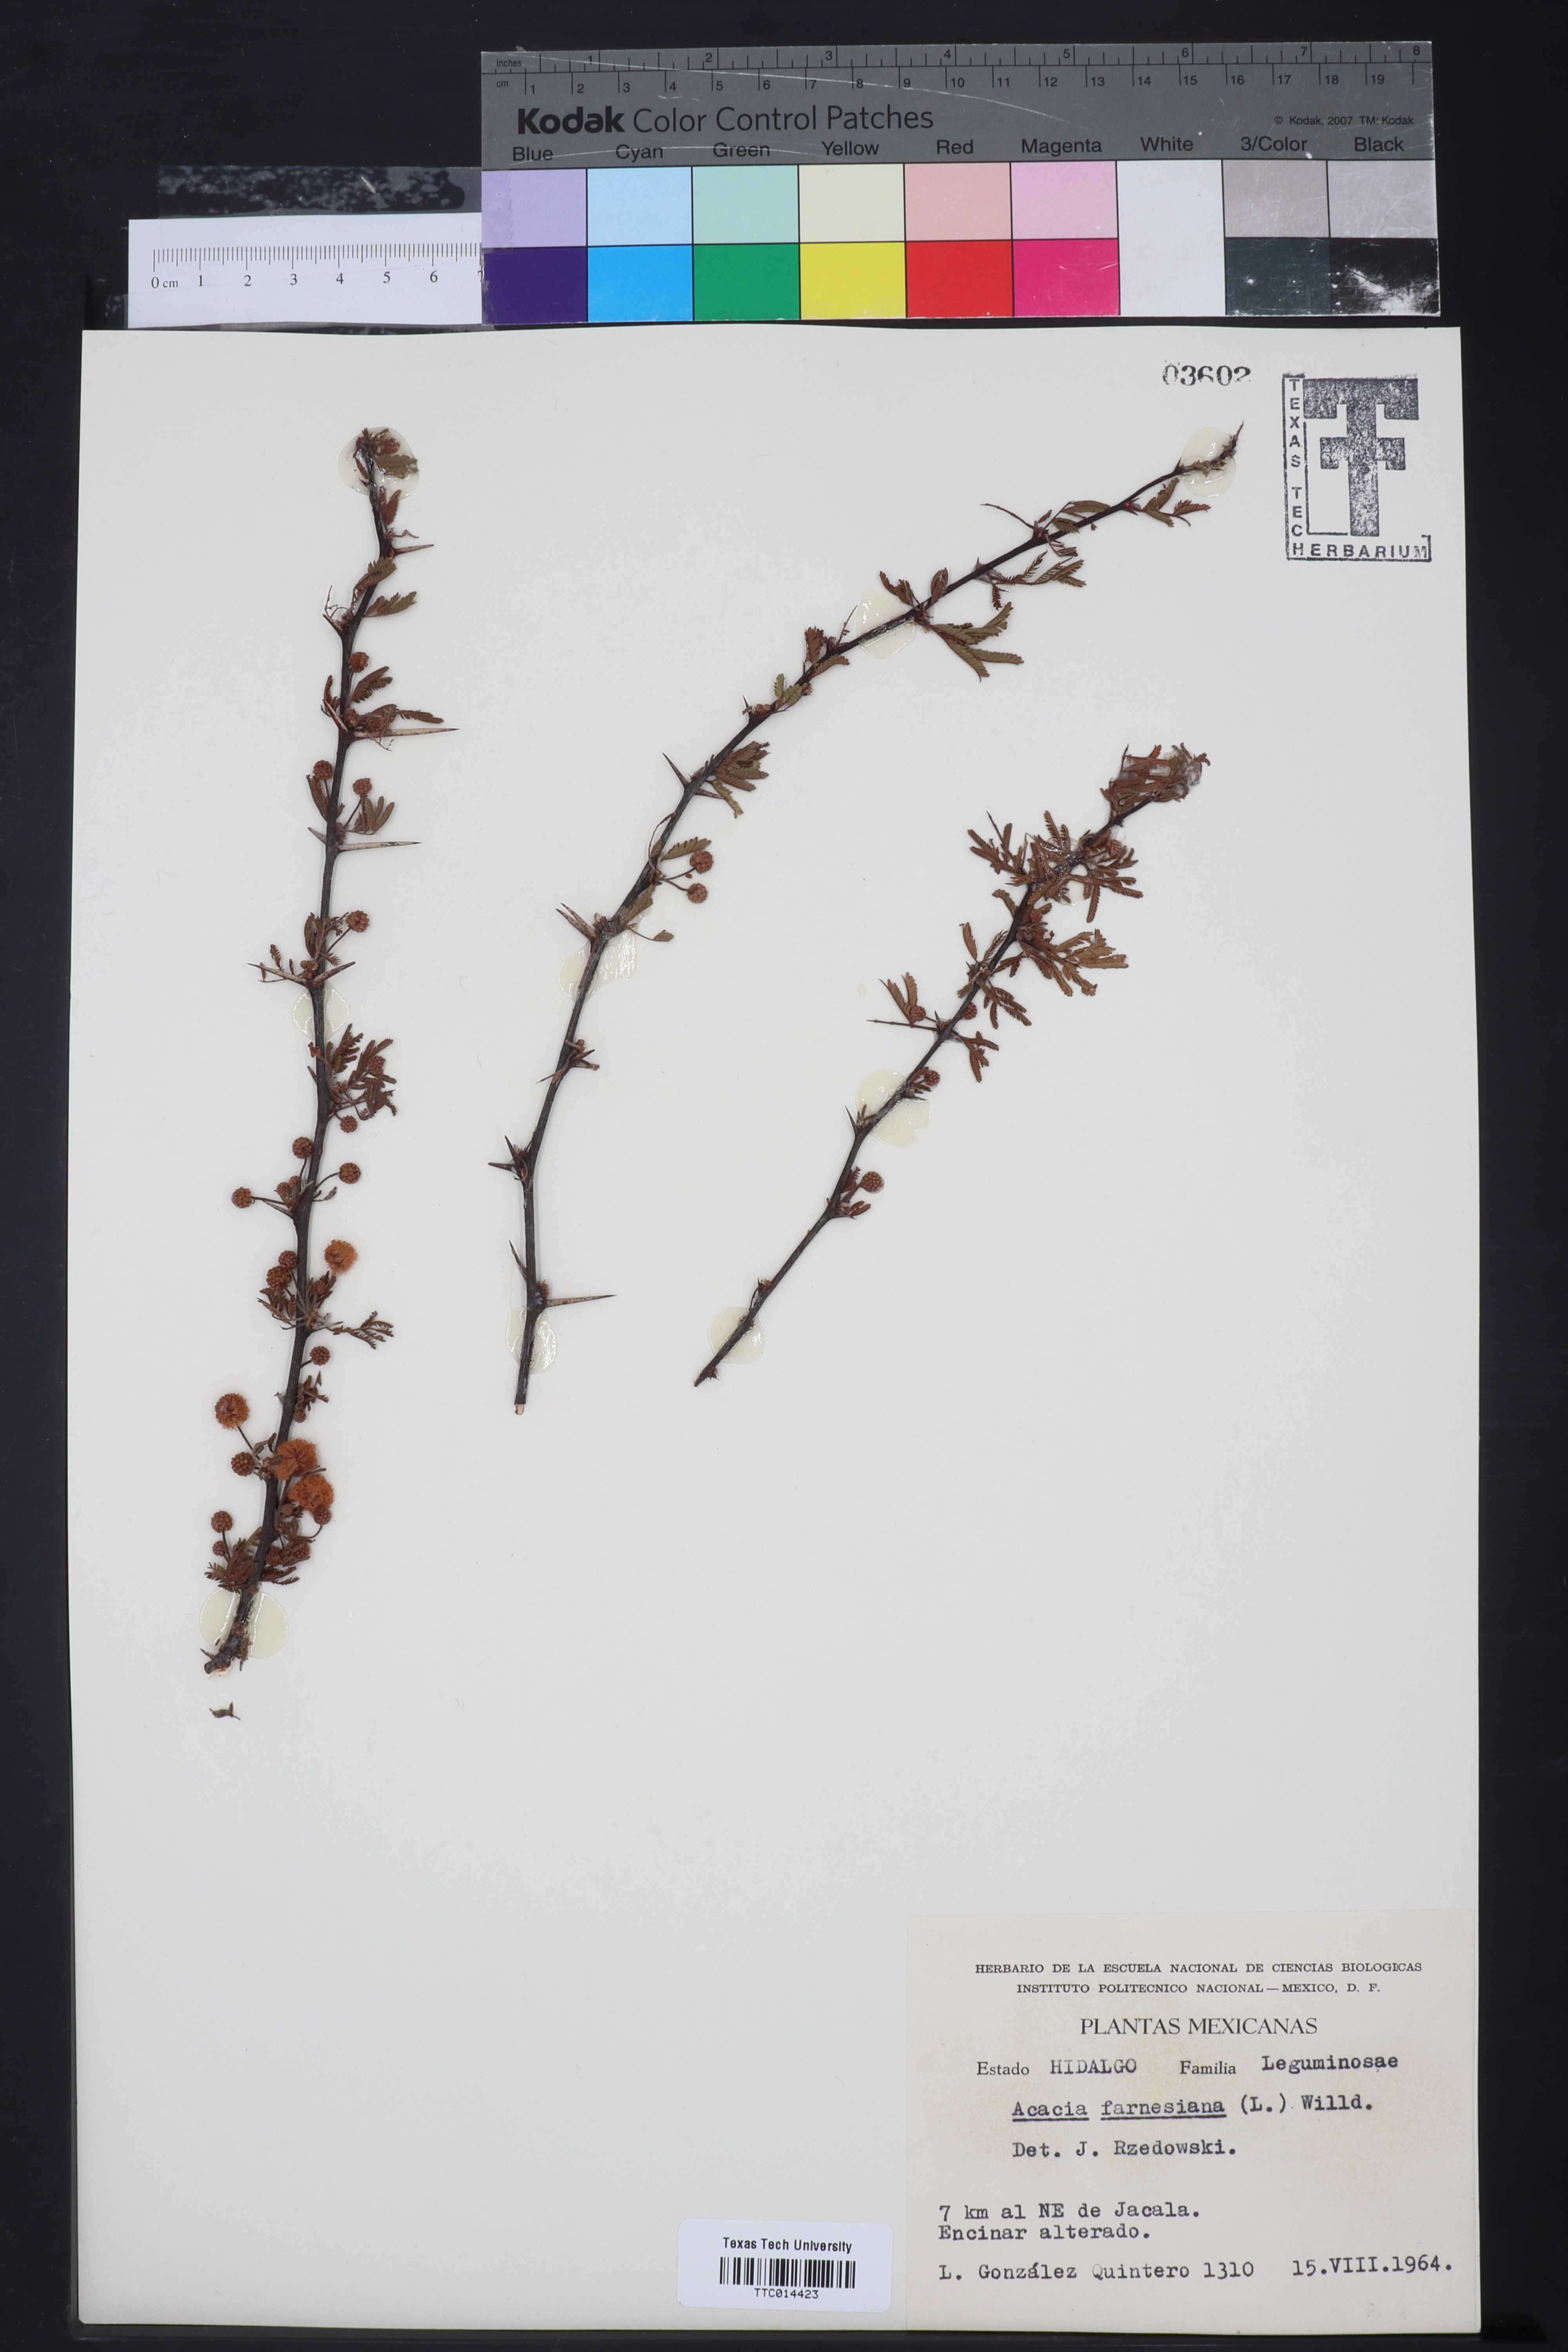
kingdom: Plantae
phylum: Tracheophyta
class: Magnoliopsida
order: Fabales
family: Fabaceae
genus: Vachellia
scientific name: Vachellia farnesiana
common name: Sweet acacia
